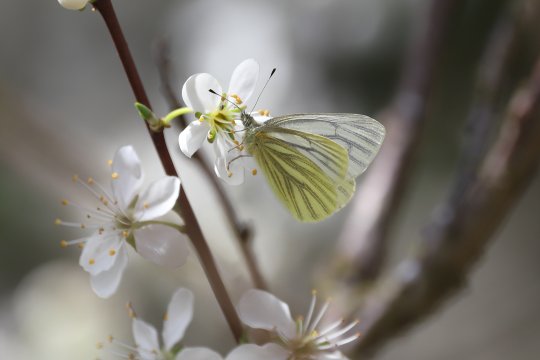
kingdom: Animalia
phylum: Arthropoda
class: Insecta
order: Lepidoptera
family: Pieridae
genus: Pieris
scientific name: Pieris marginalis
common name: Margined White
